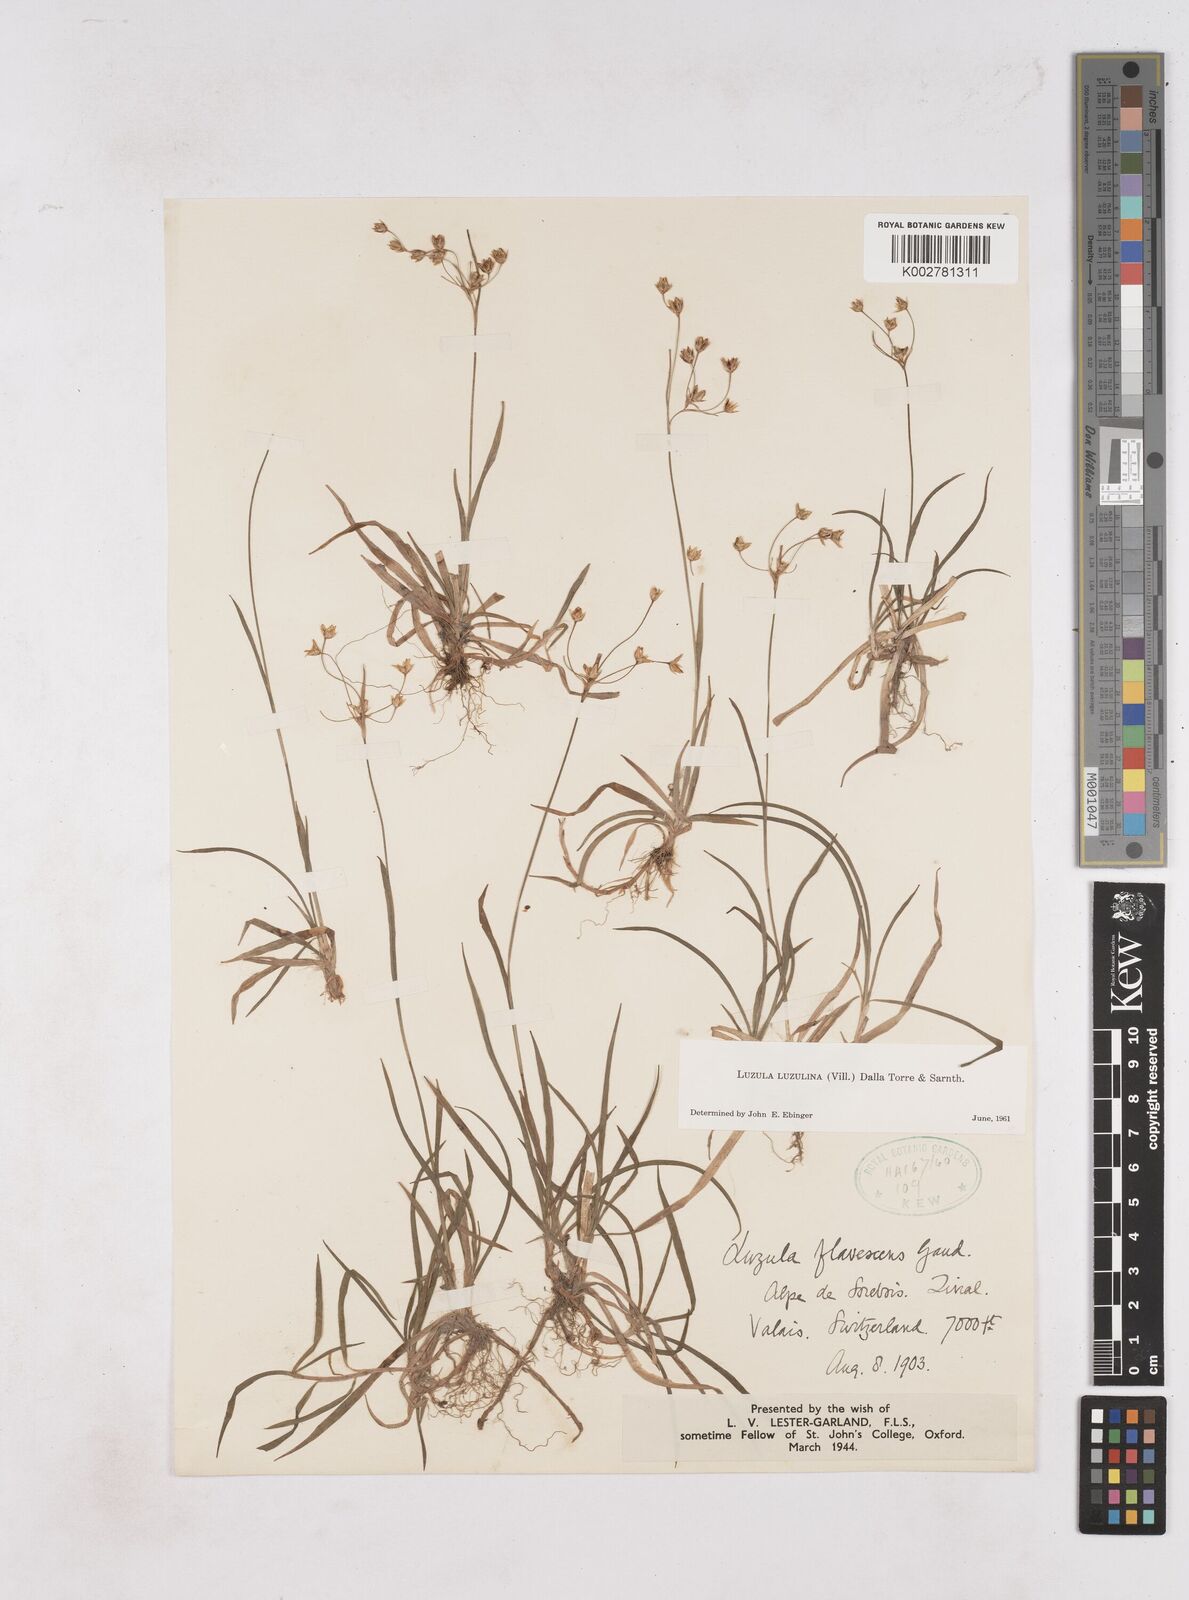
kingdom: Plantae
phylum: Tracheophyta
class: Liliopsida
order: Poales
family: Juncaceae
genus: Luzula
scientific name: Luzula luzulina
